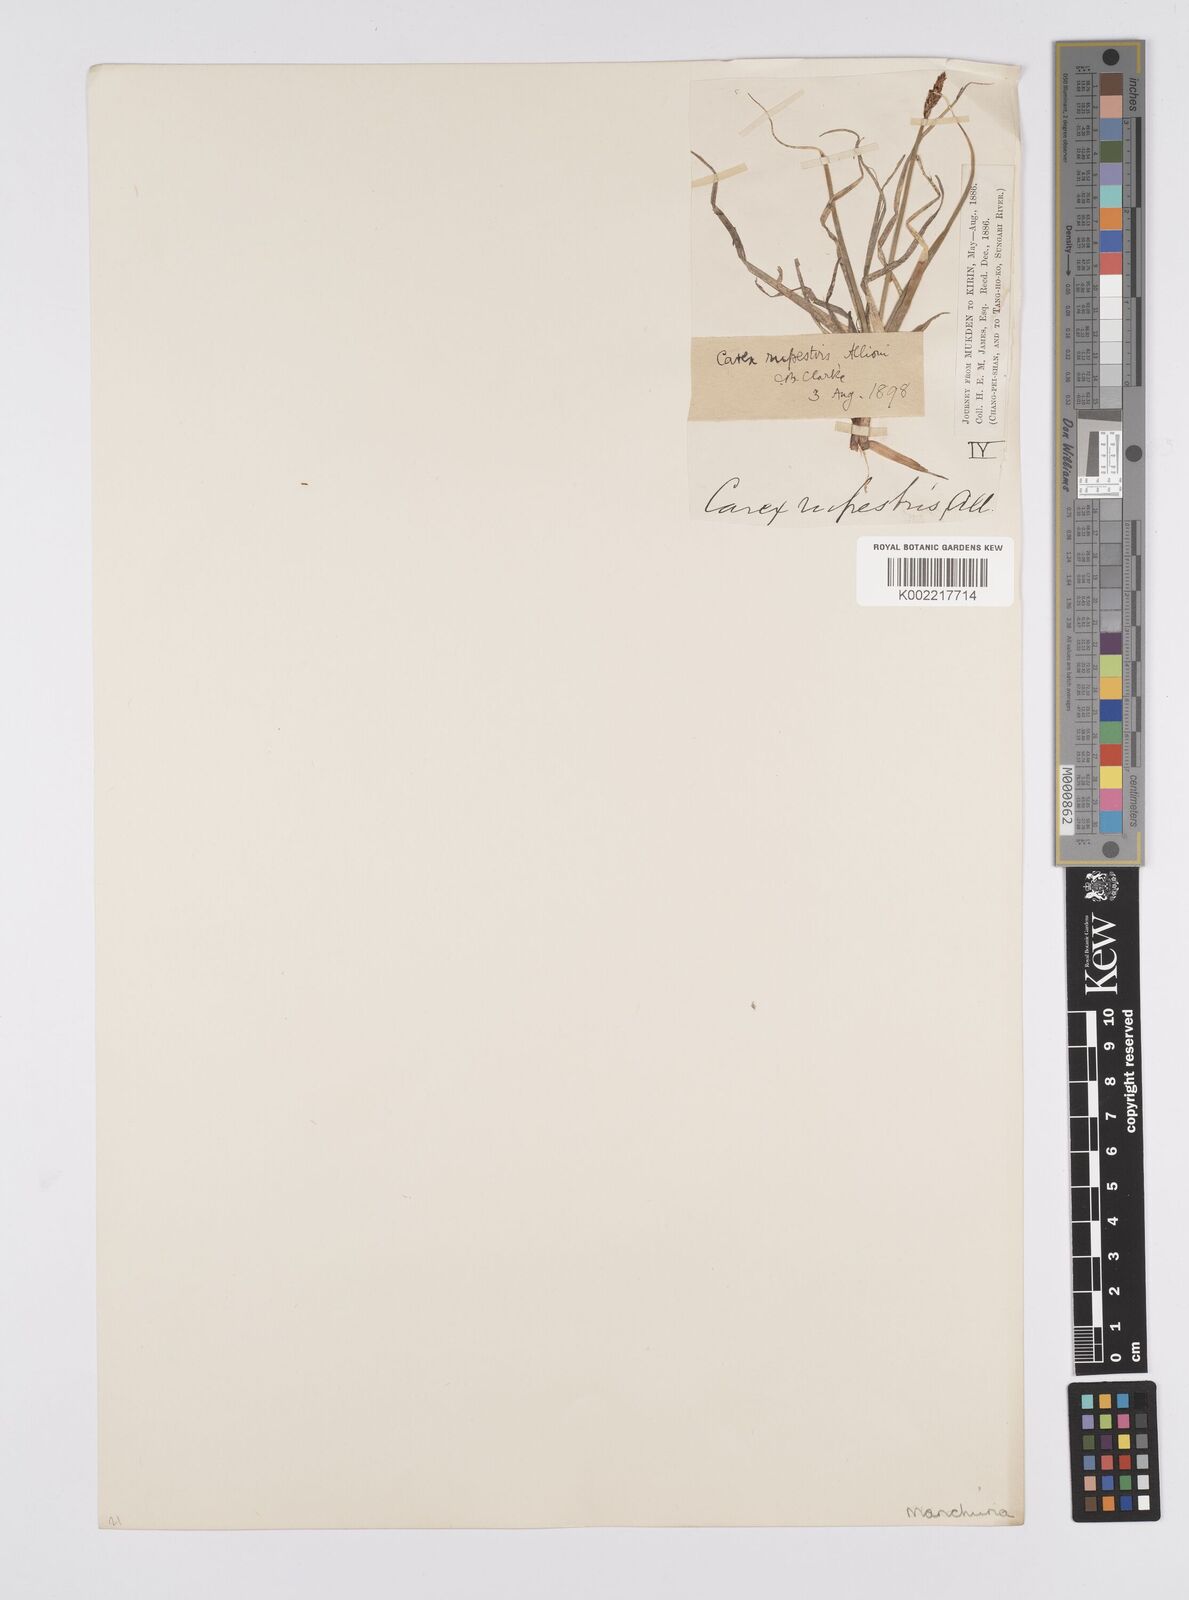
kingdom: Plantae
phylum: Tracheophyta
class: Liliopsida
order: Poales
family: Cyperaceae
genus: Carex
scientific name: Carex rupestris
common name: Rock sedge
